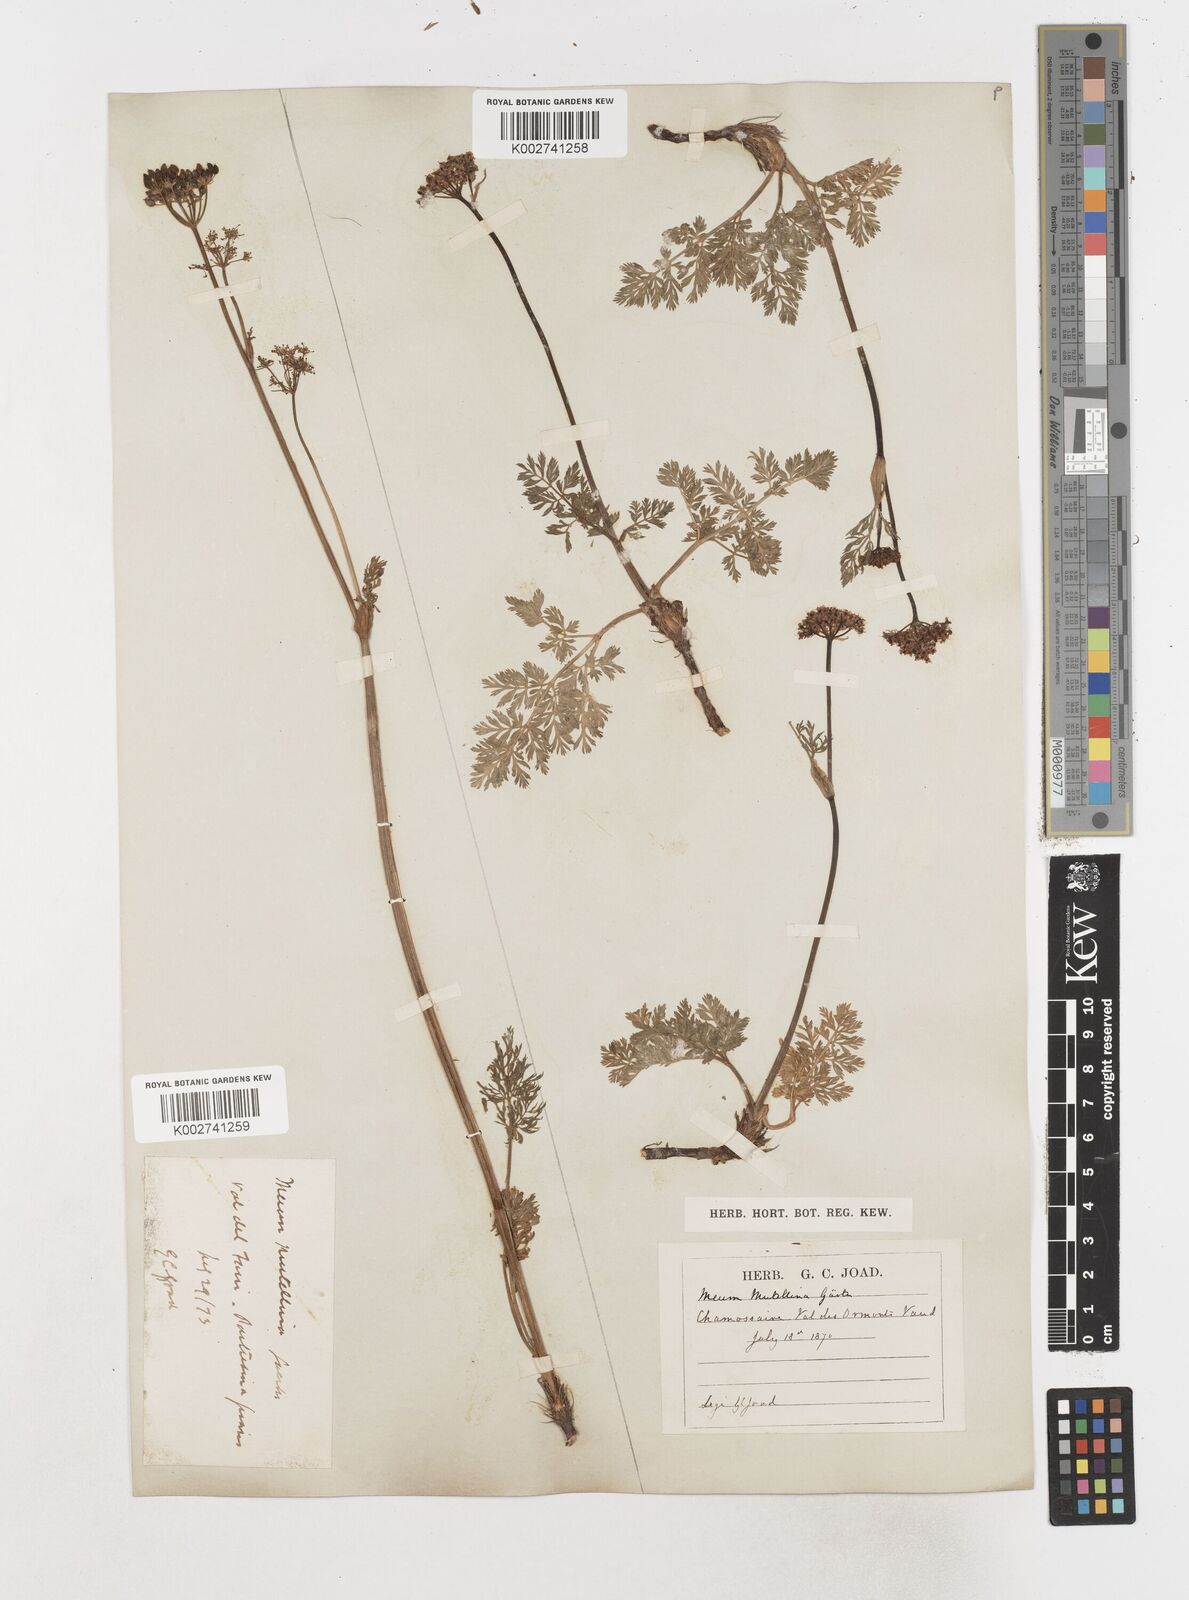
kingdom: Plantae
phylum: Tracheophyta
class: Magnoliopsida
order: Apiales
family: Apiaceae
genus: Mutellina
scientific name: Mutellina adonidifolia
